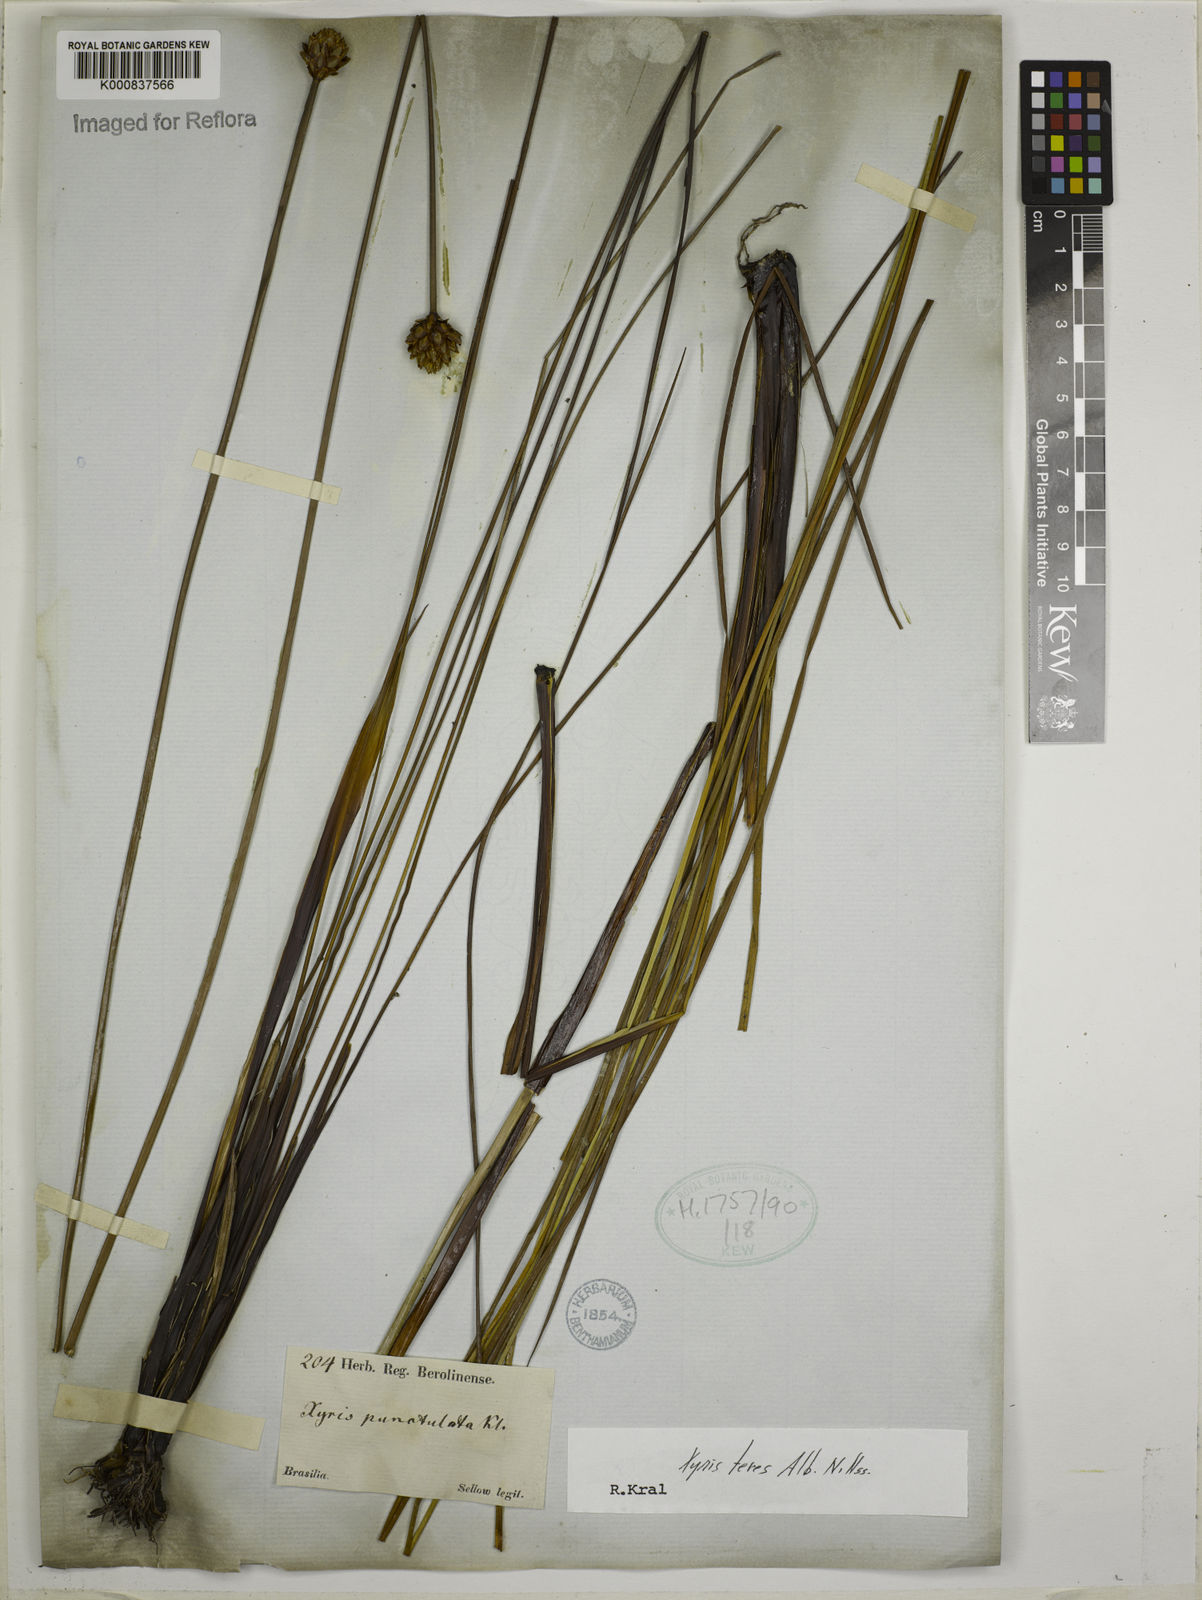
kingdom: Plantae
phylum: Tracheophyta
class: Liliopsida
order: Poales
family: Xyridaceae
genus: Xyris
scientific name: Xyris teres
